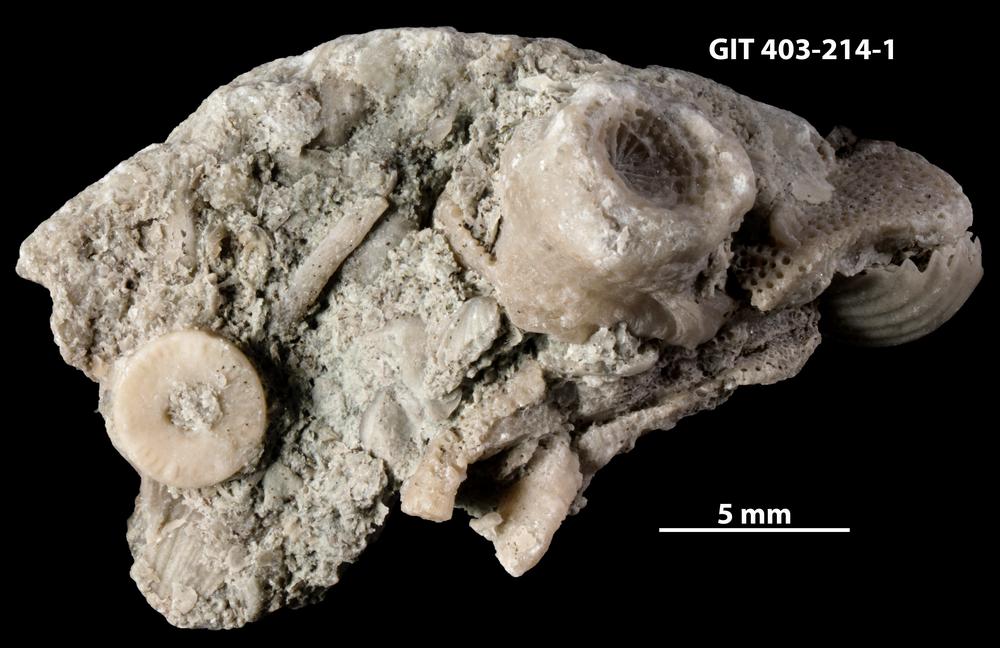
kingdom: Animalia
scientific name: Animalia
